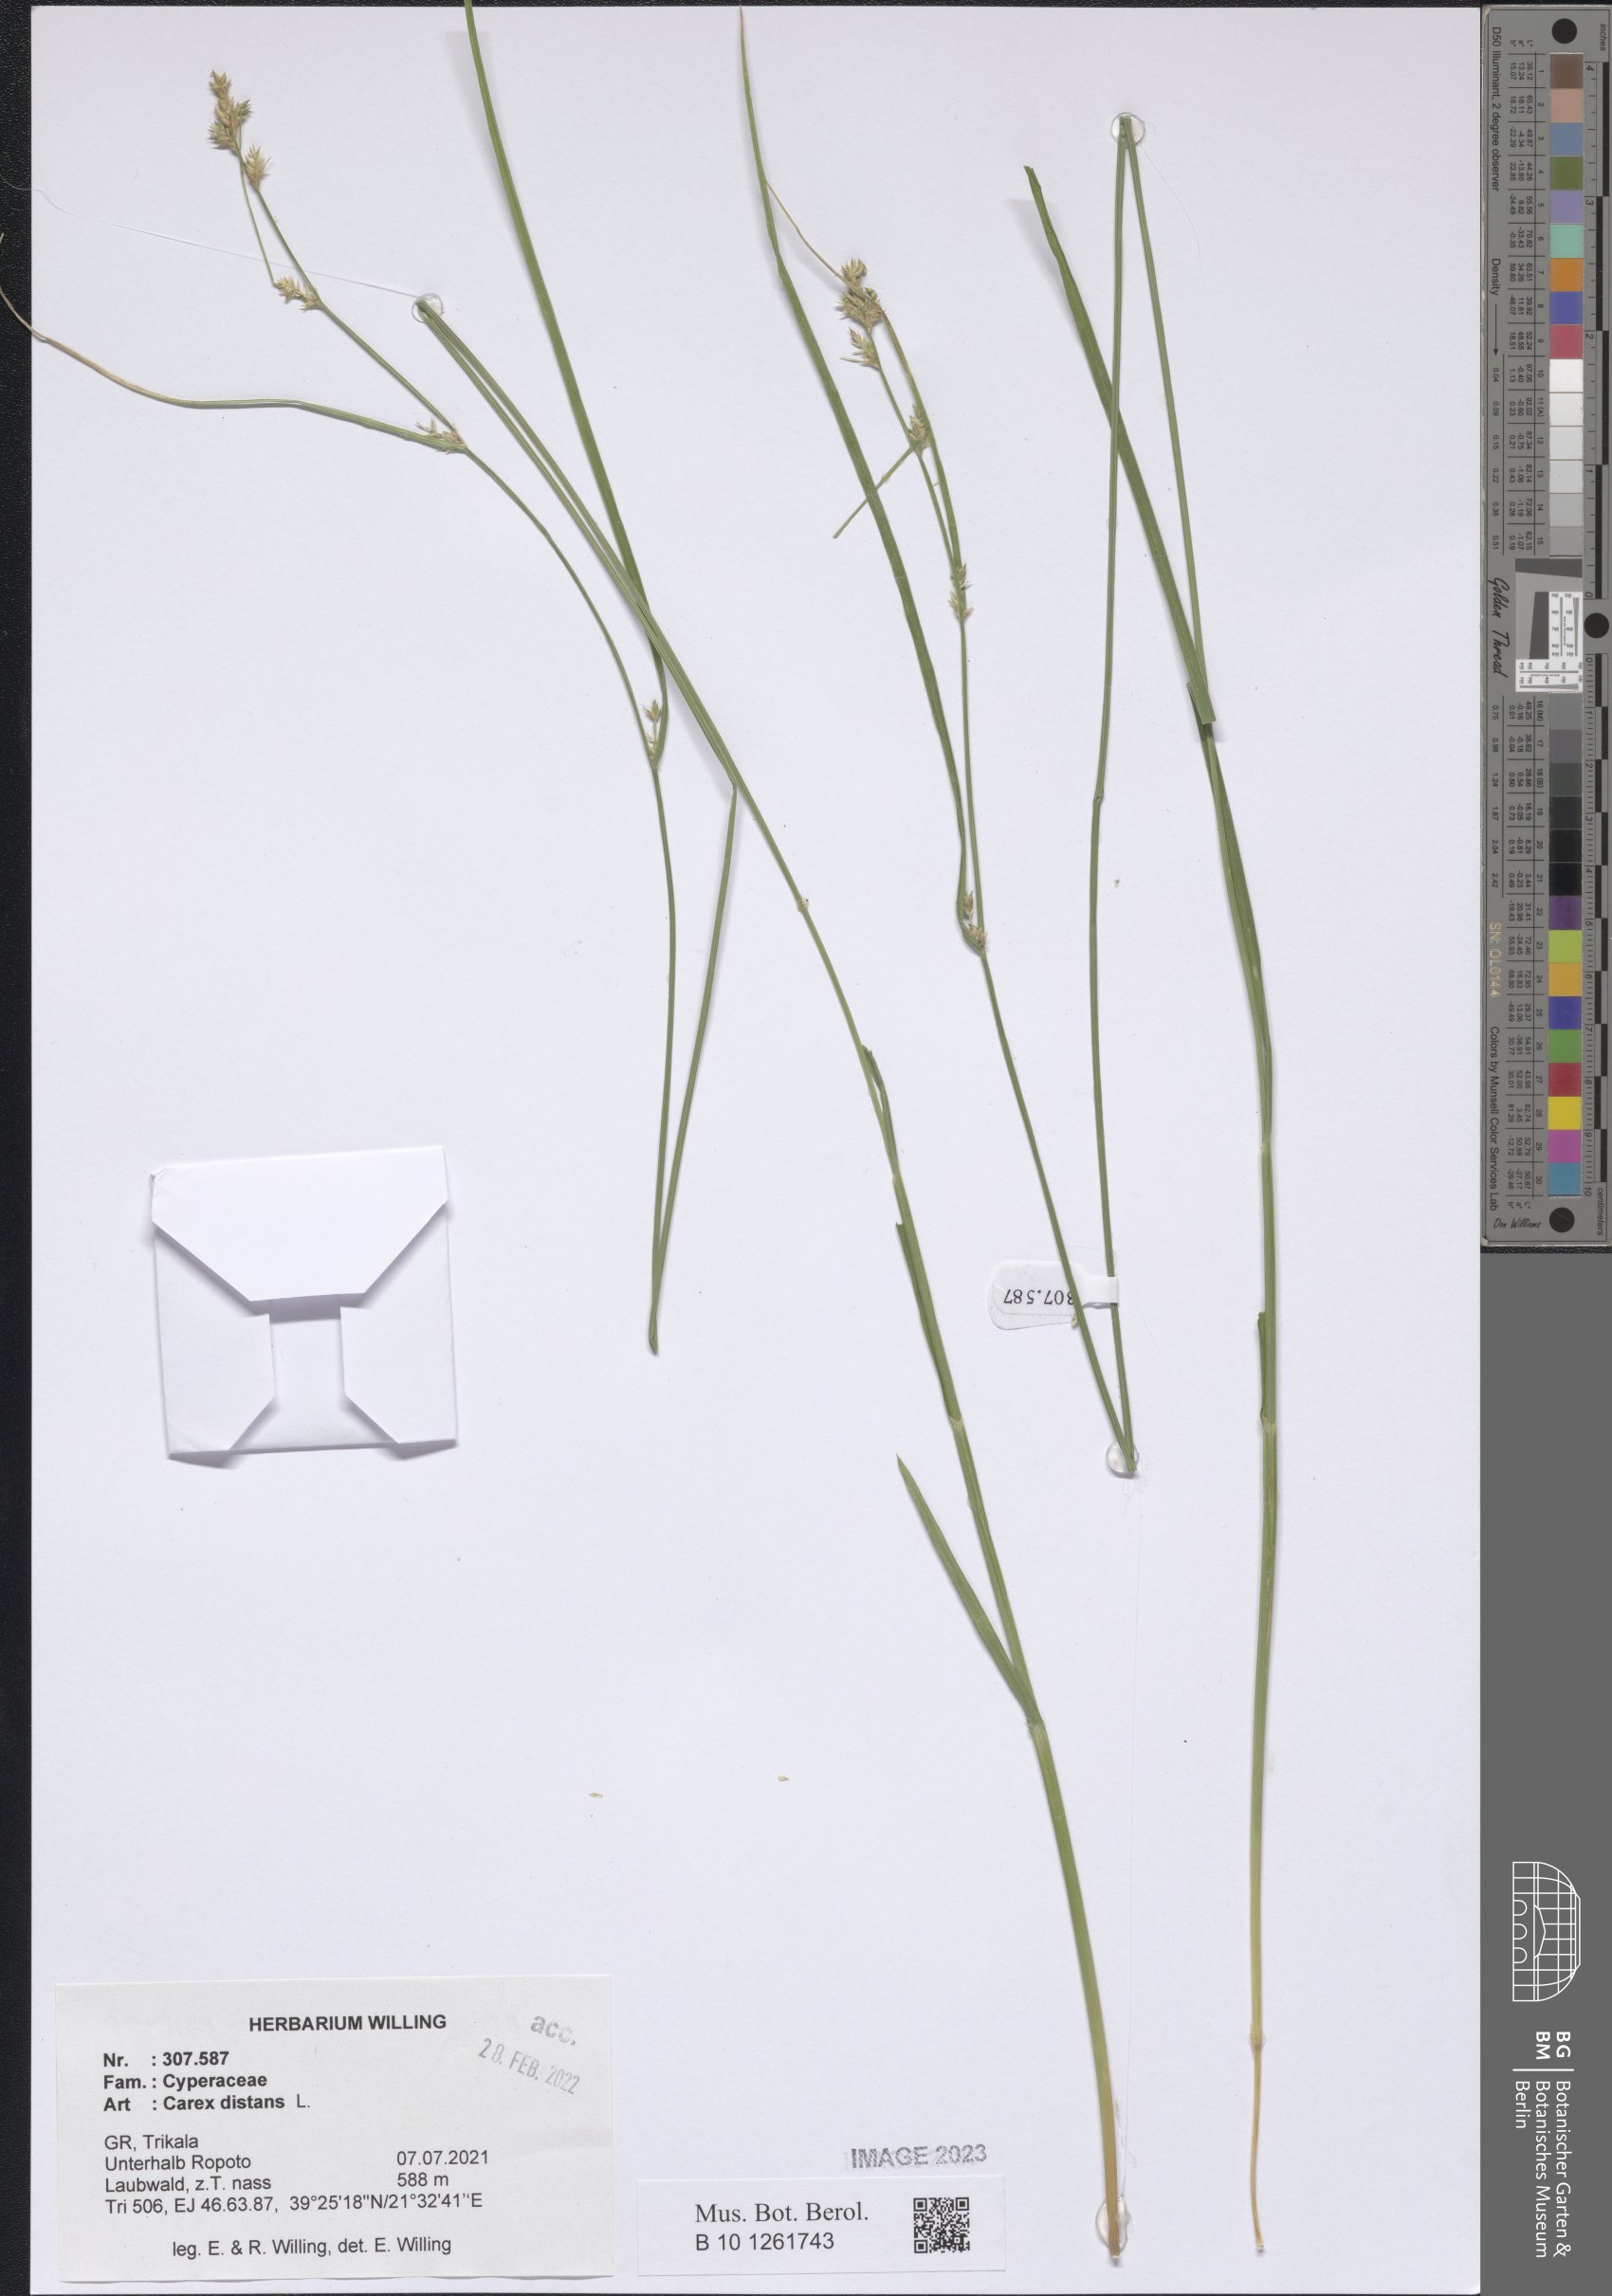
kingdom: Plantae
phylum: Tracheophyta
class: Liliopsida
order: Poales
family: Cyperaceae
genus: Carex
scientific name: Carex distans
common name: Distant sedge
